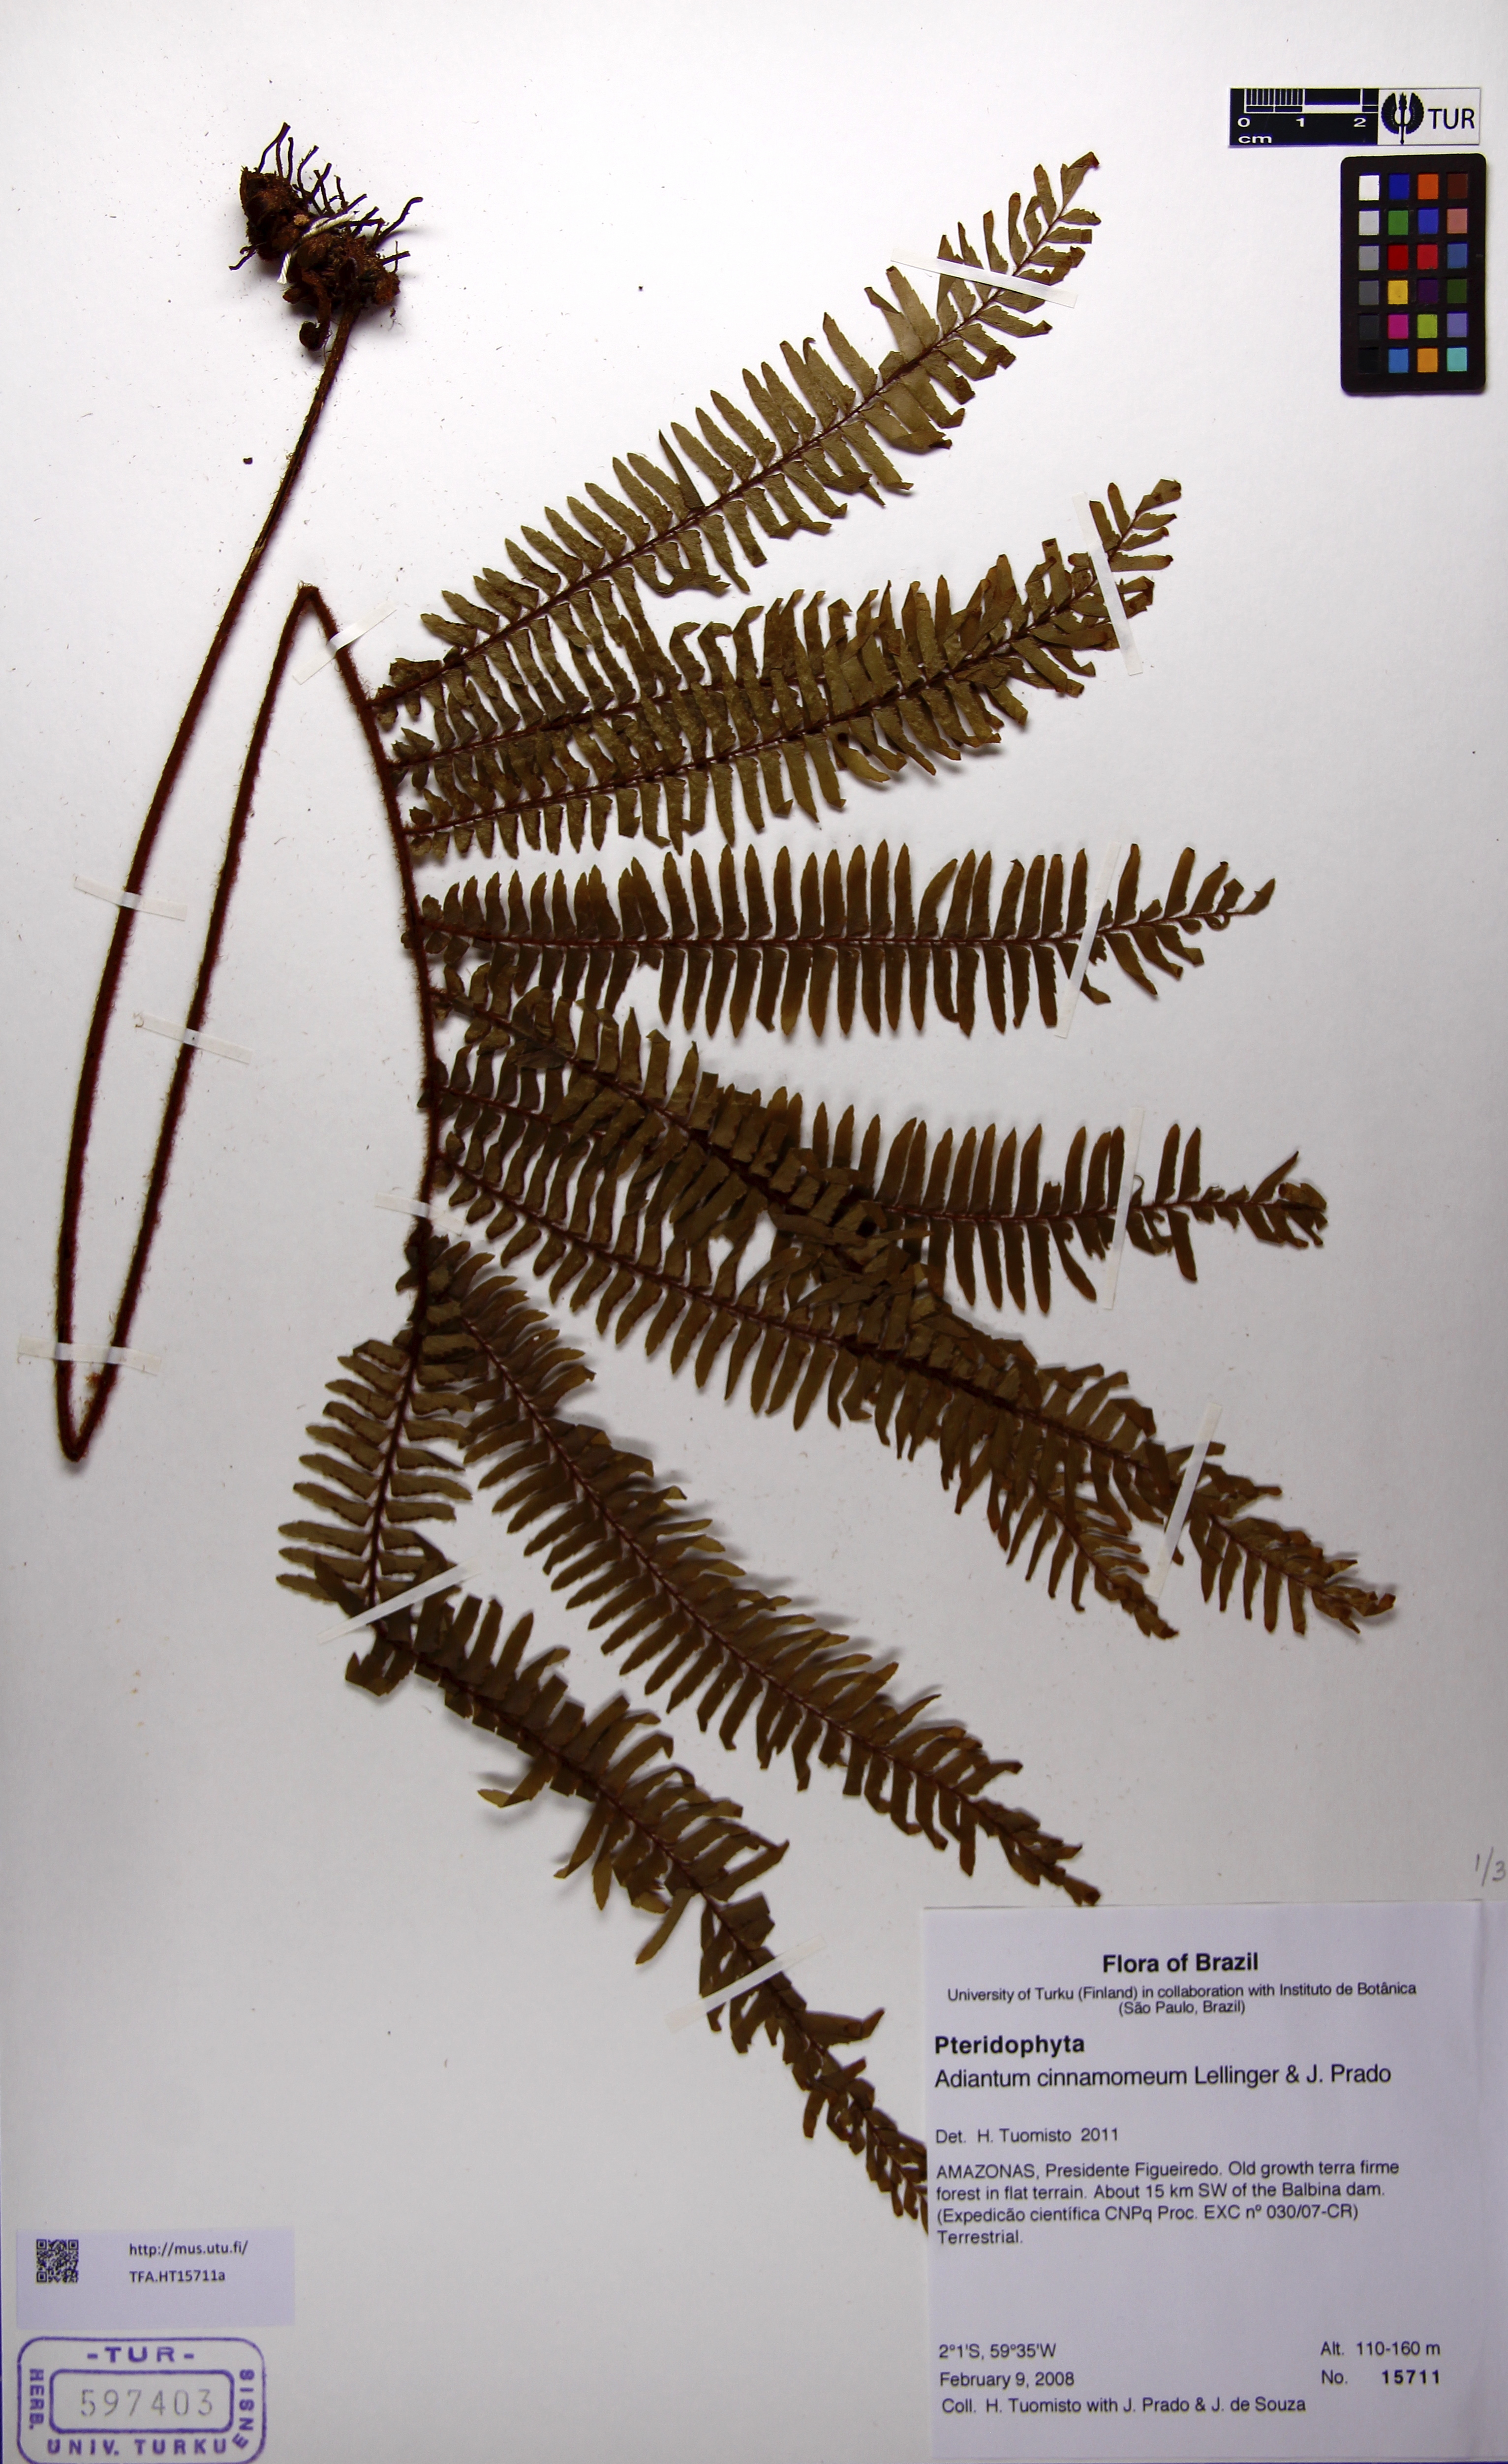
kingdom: Plantae
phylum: Tracheophyta
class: Polypodiopsida
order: Polypodiales
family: Pteridaceae
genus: Adiantum
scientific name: Adiantum cinnamomeum
